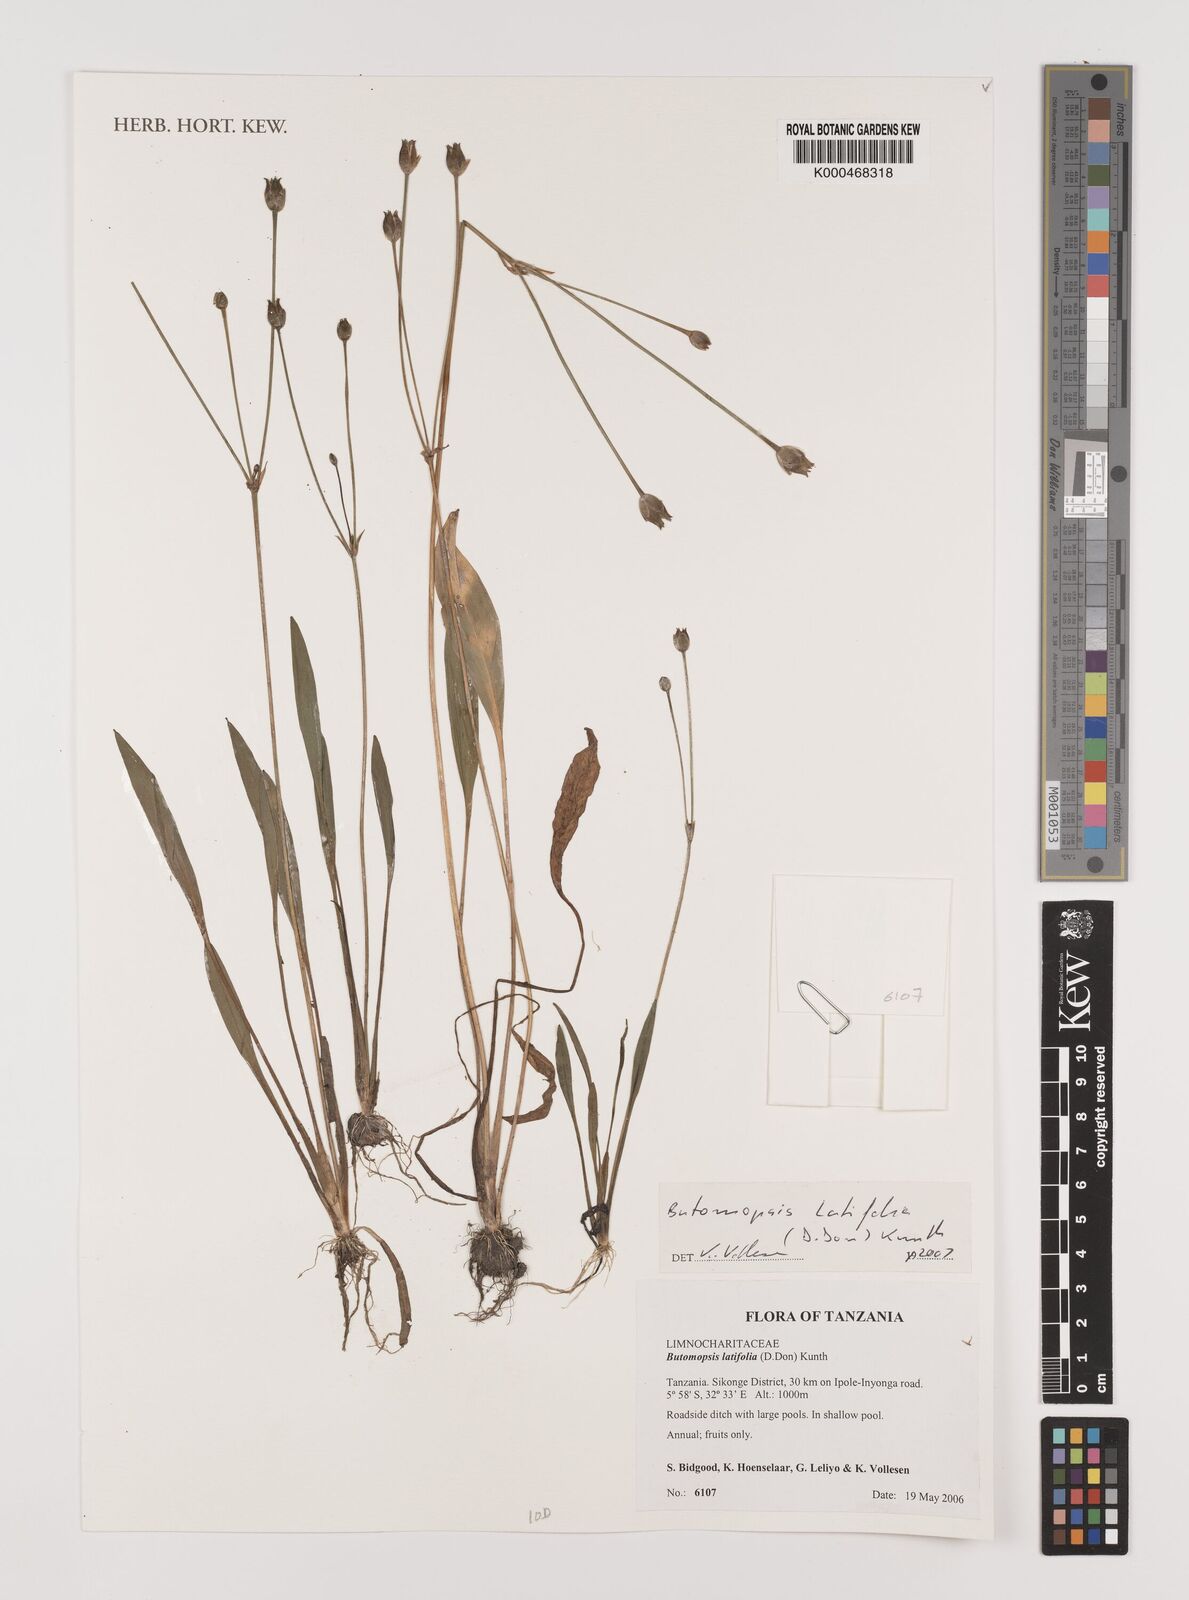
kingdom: Plantae
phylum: Tracheophyta
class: Liliopsida
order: Alismatales
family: Alismataceae
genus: Butomopsis
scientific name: Butomopsis latifolia
